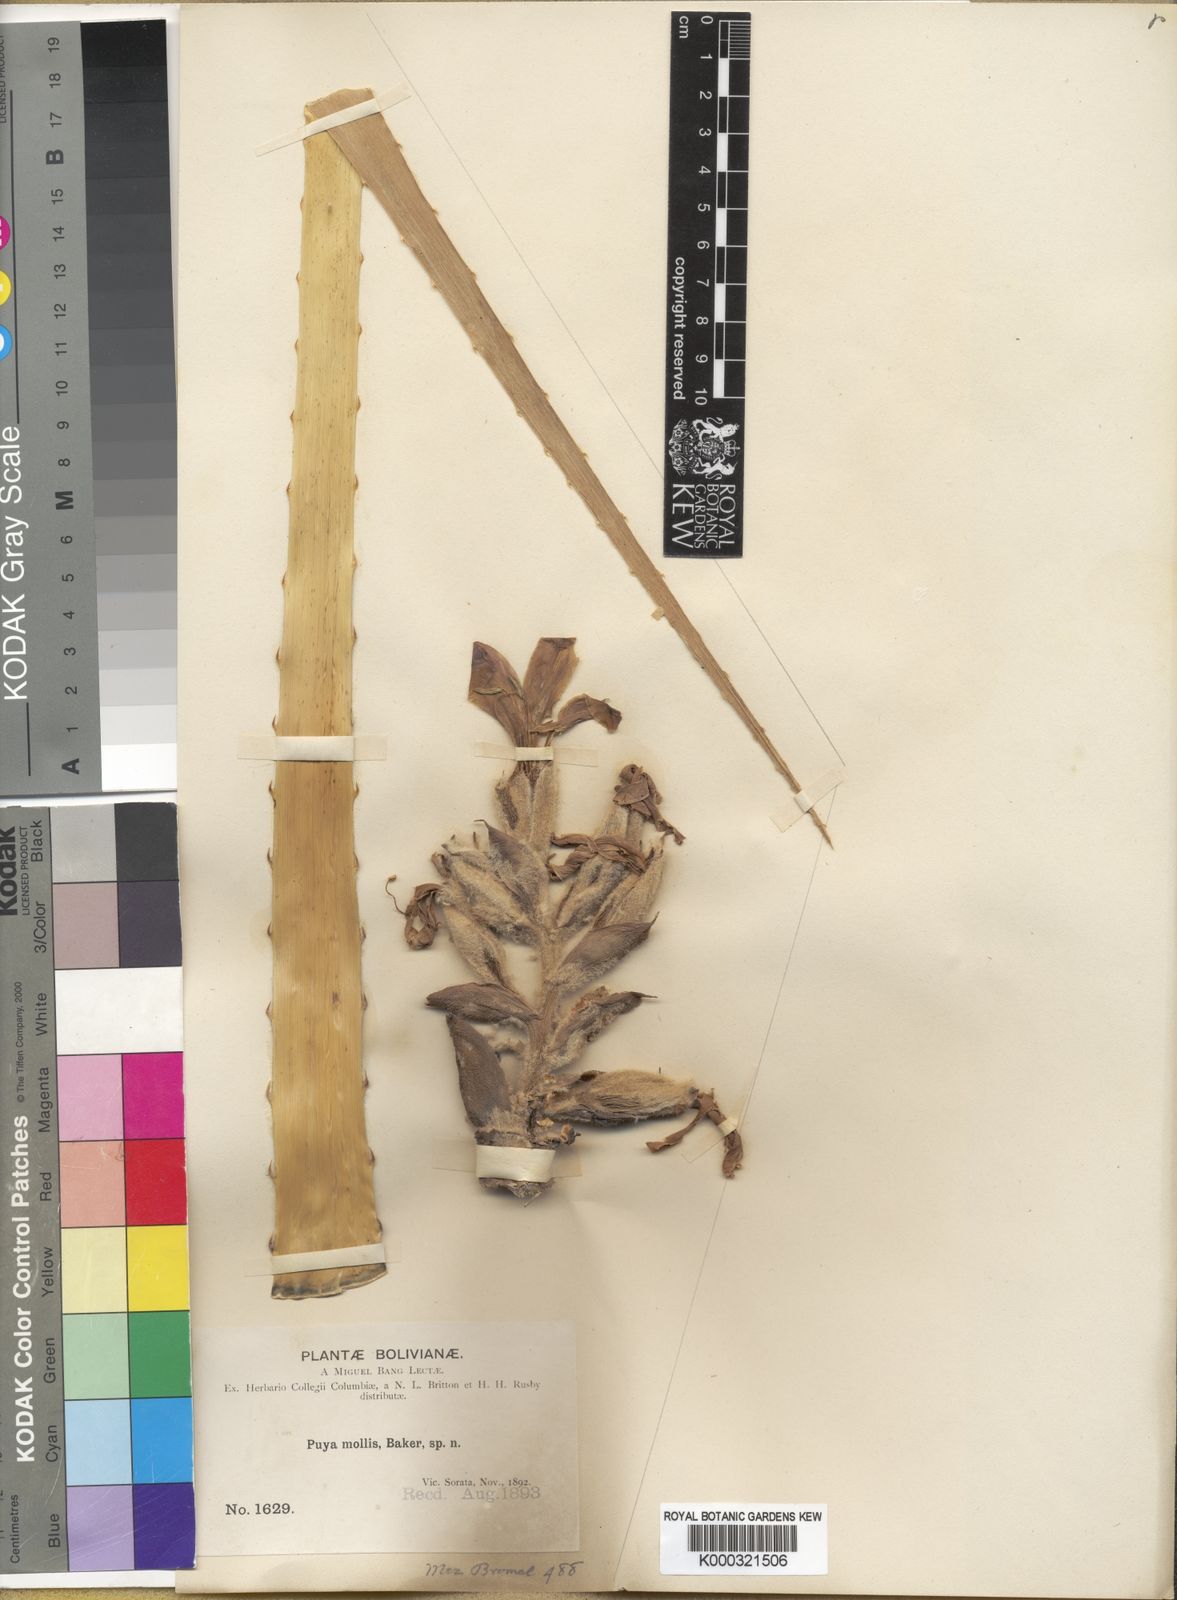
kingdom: Plantae
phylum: Tracheophyta
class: Liliopsida
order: Poales
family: Bromeliaceae
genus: Puya
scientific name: Puya mollis
